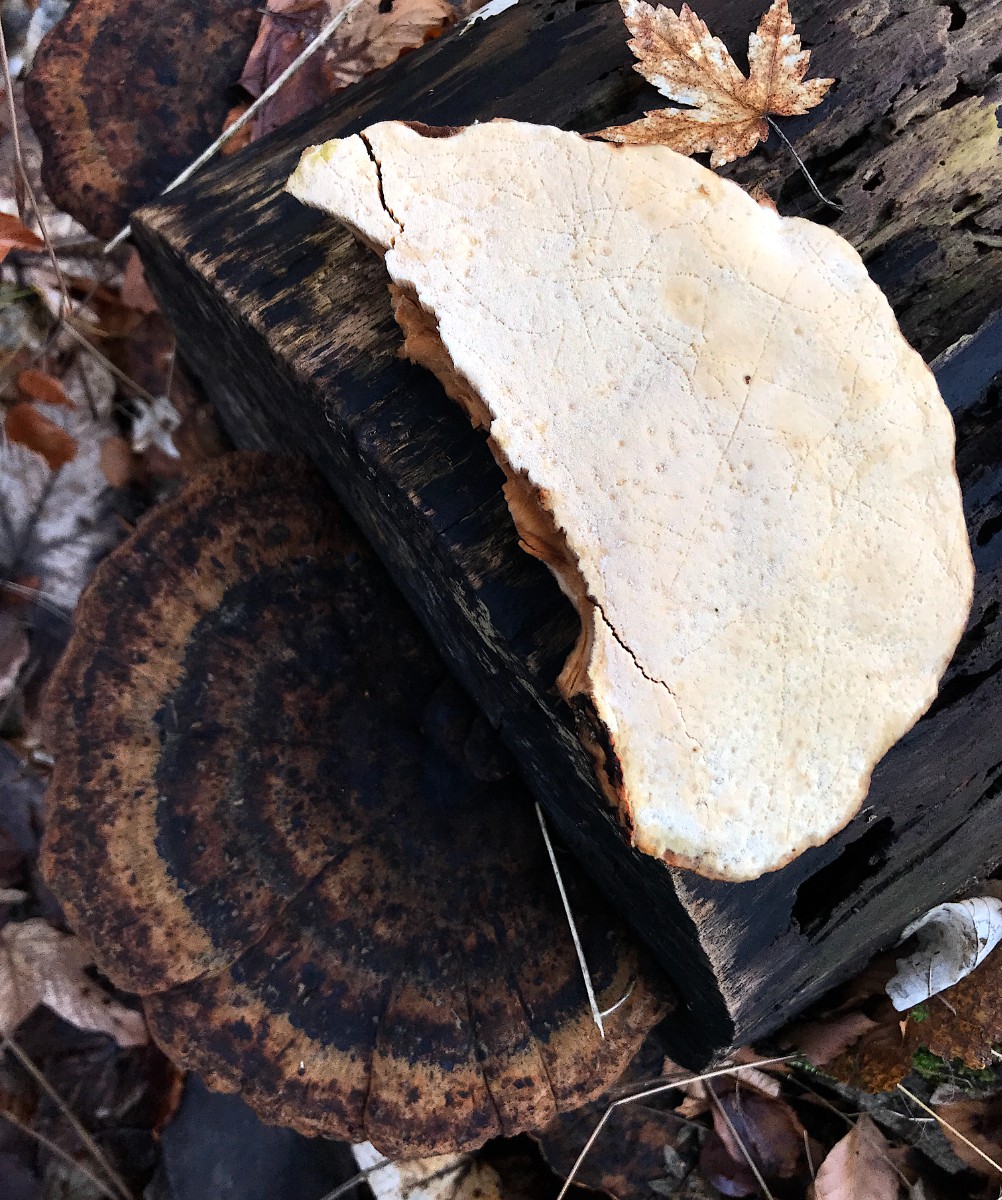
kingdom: Fungi
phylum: Basidiomycota
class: Agaricomycetes
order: Polyporales
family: Ischnodermataceae
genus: Ischnoderma
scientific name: Ischnoderma resinosum
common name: løv-tjæreporesvamp
